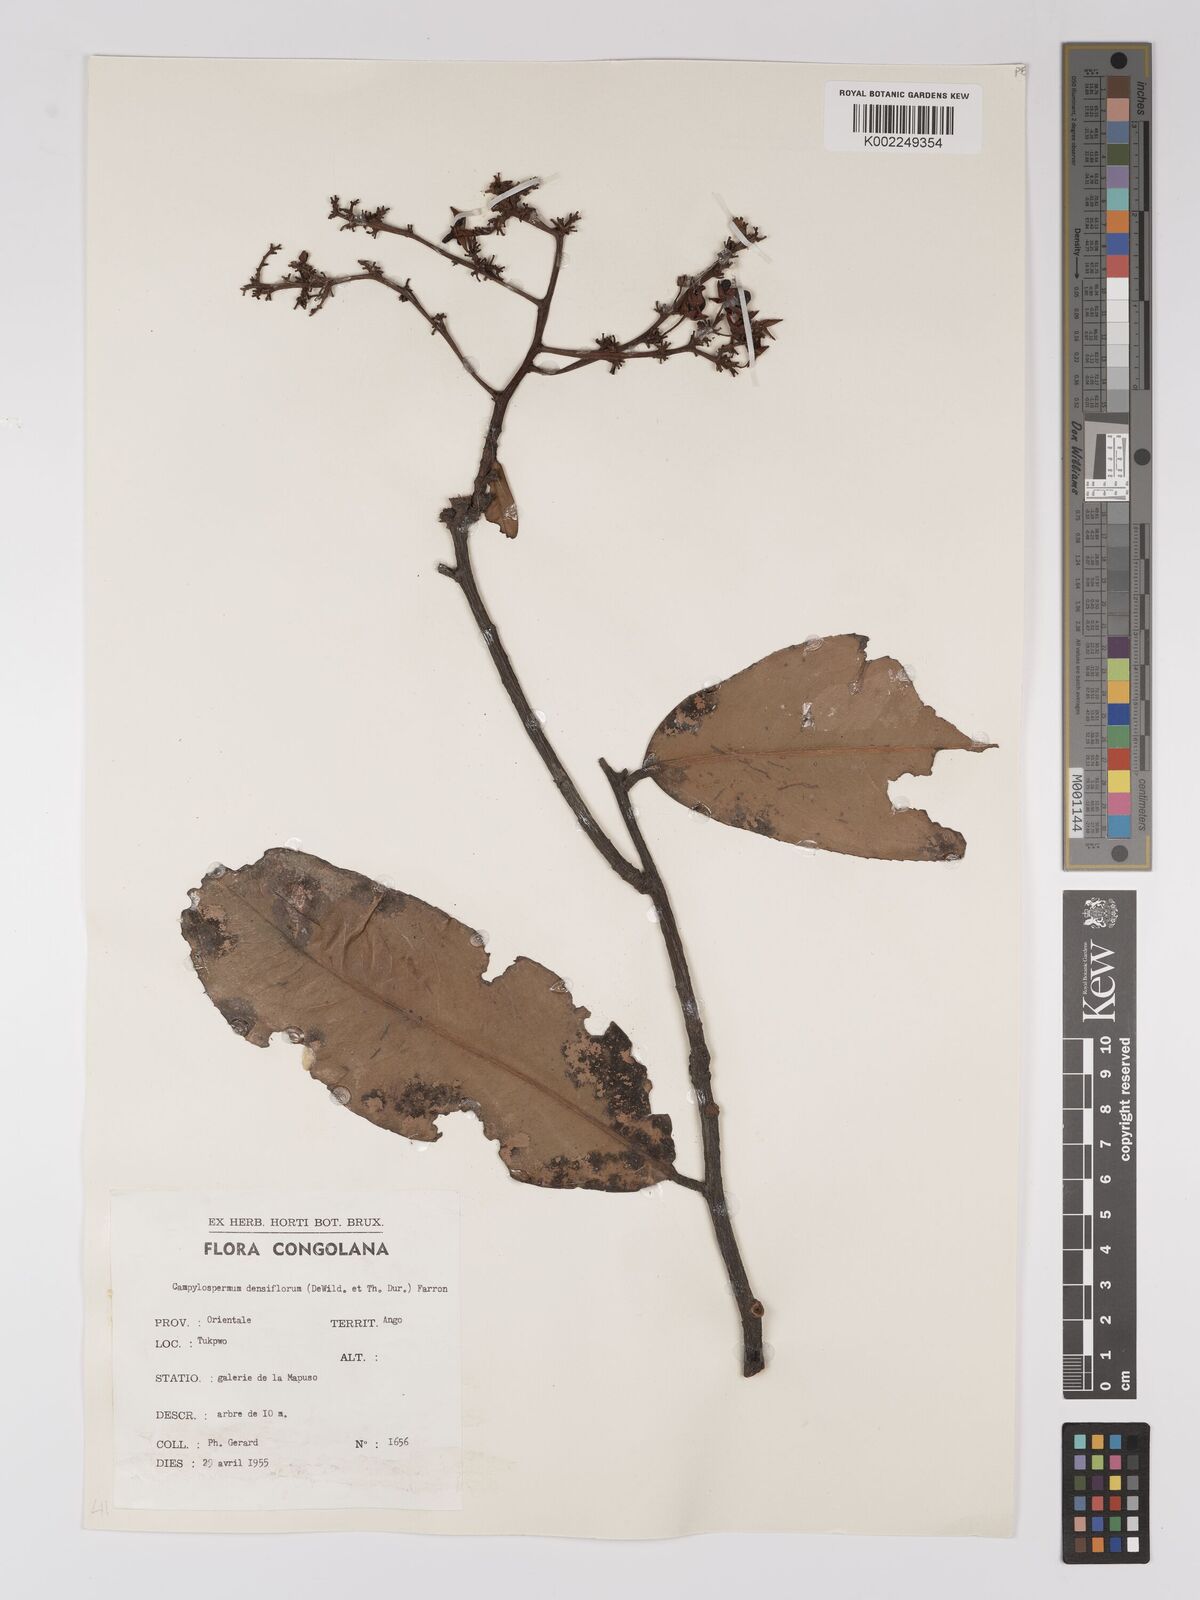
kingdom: Plantae
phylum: Tracheophyta
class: Magnoliopsida
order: Malpighiales
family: Ochnaceae
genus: Gomphia
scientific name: Gomphia densiflora
